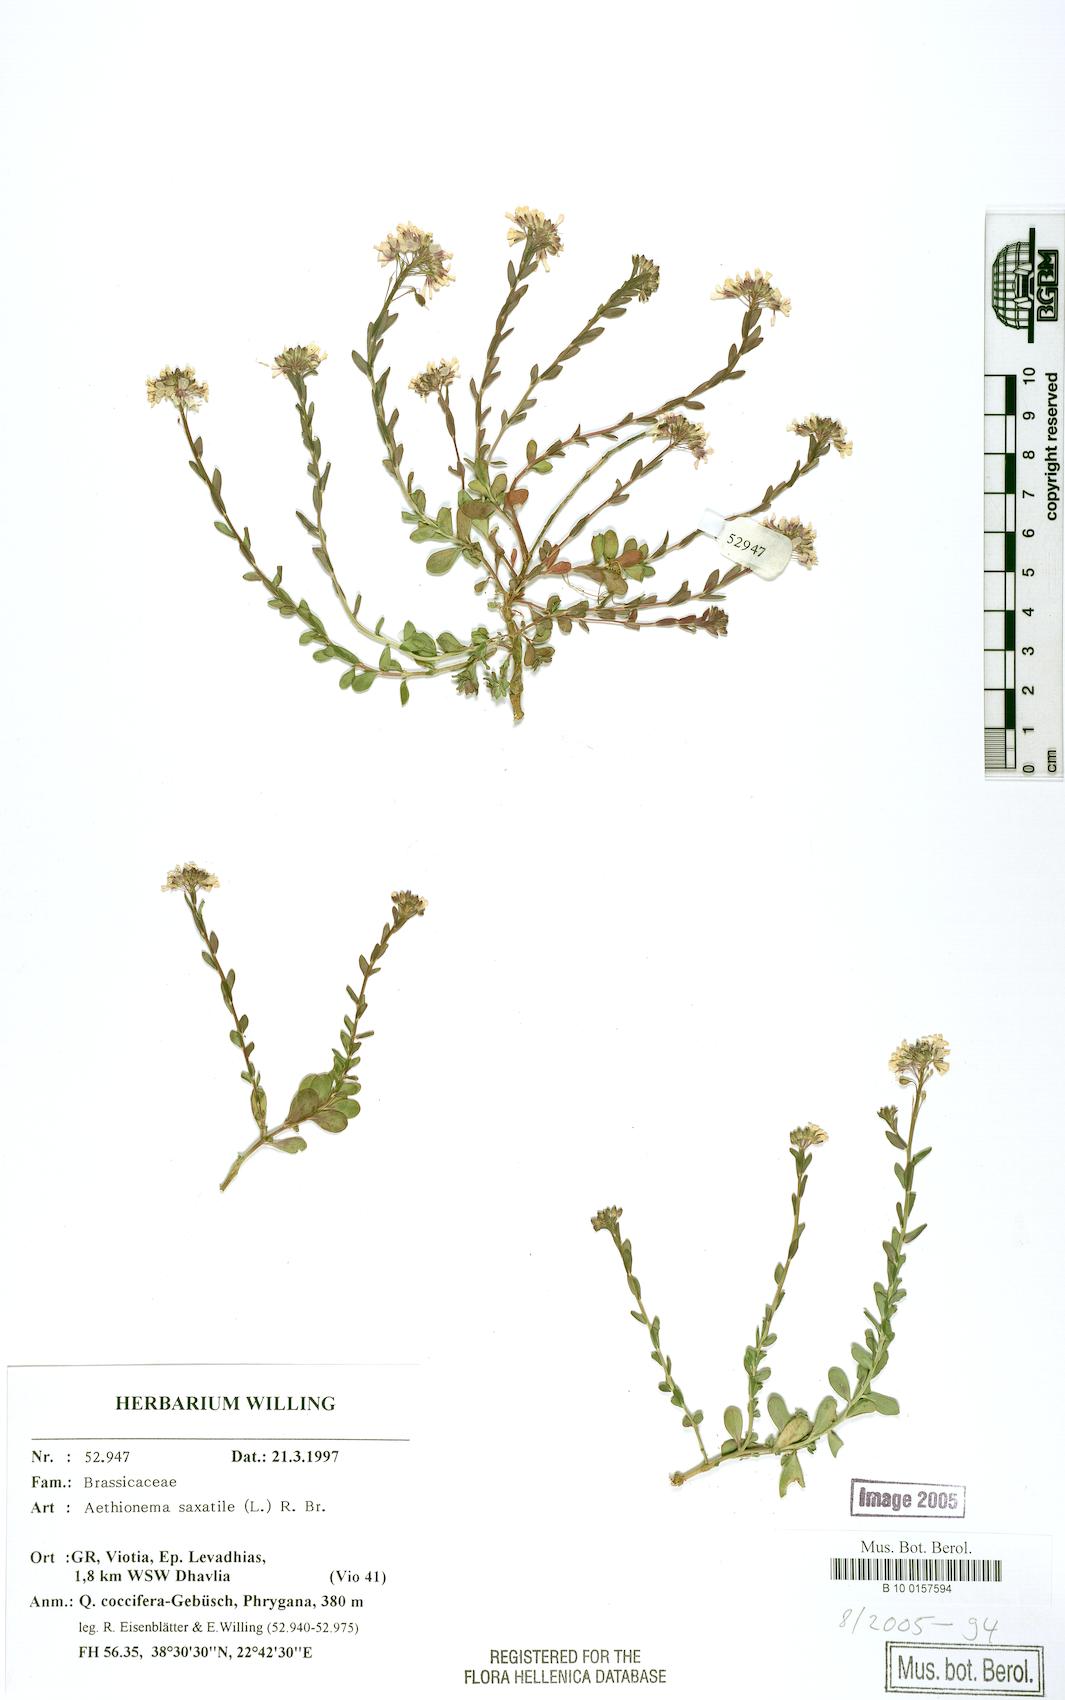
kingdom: Plantae
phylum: Tracheophyta
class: Magnoliopsida
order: Brassicales
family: Brassicaceae
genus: Aethionema
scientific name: Aethionema saxatile
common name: Burnt candytuft
